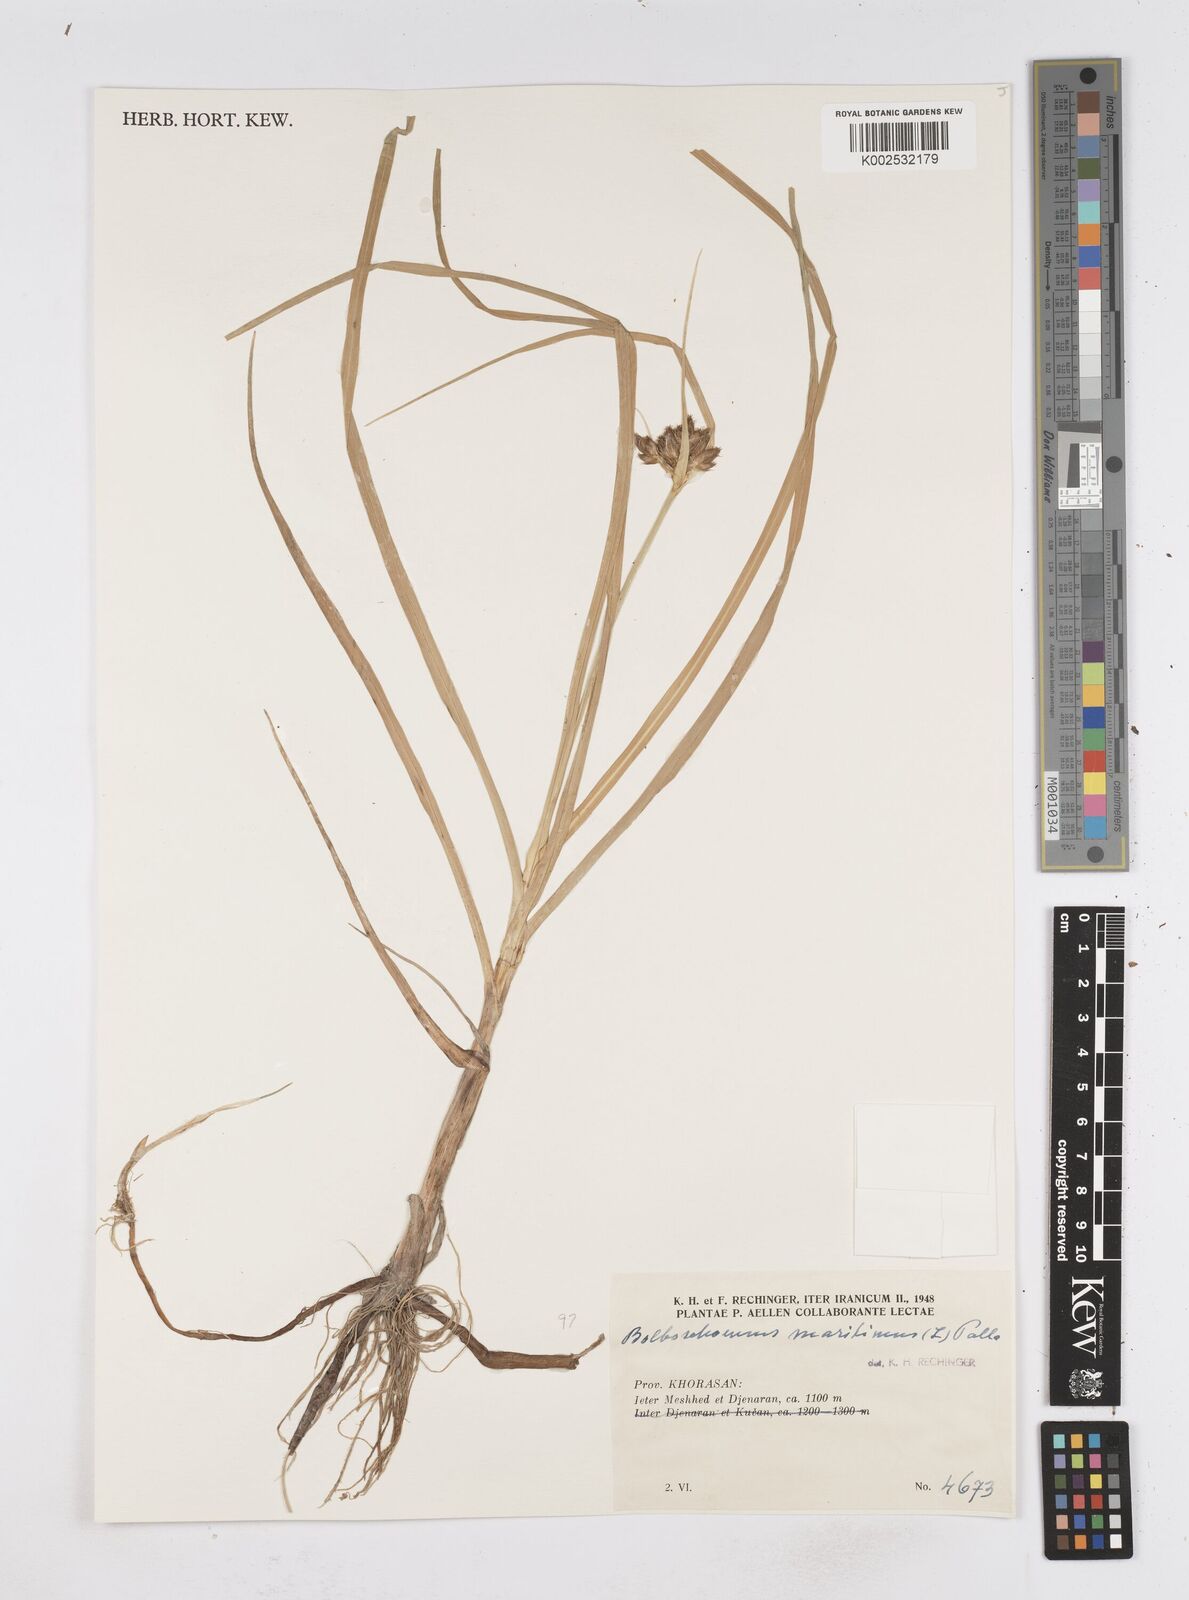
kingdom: Plantae
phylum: Tracheophyta
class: Liliopsida
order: Poales
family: Cyperaceae
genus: Bolboschoenus
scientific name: Bolboschoenus maritimus
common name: Sea club-rush
